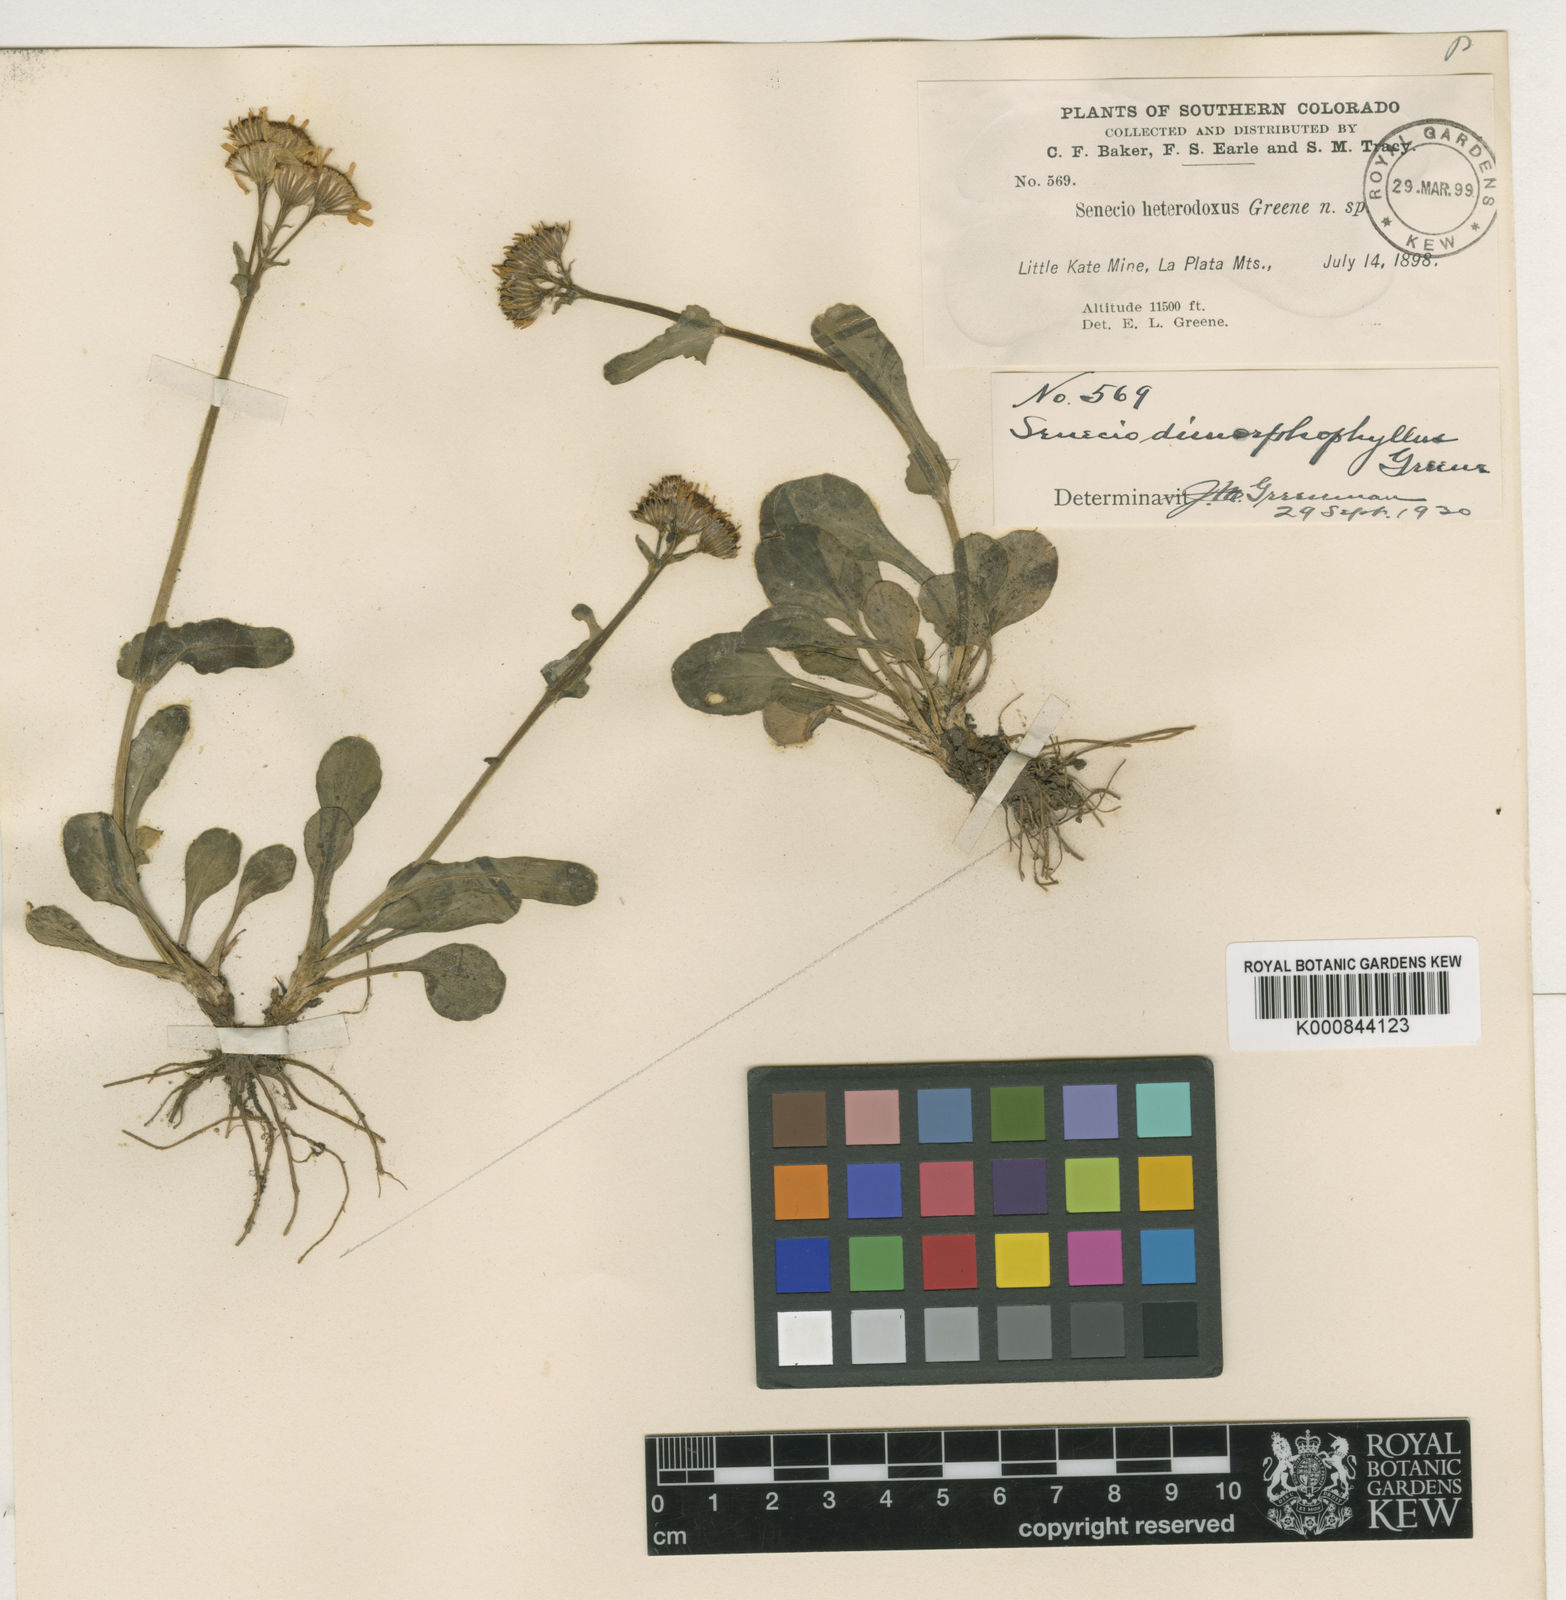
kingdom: Plantae
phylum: Tracheophyta
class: Magnoliopsida
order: Asterales
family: Asteraceae
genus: Packera
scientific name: Packera
